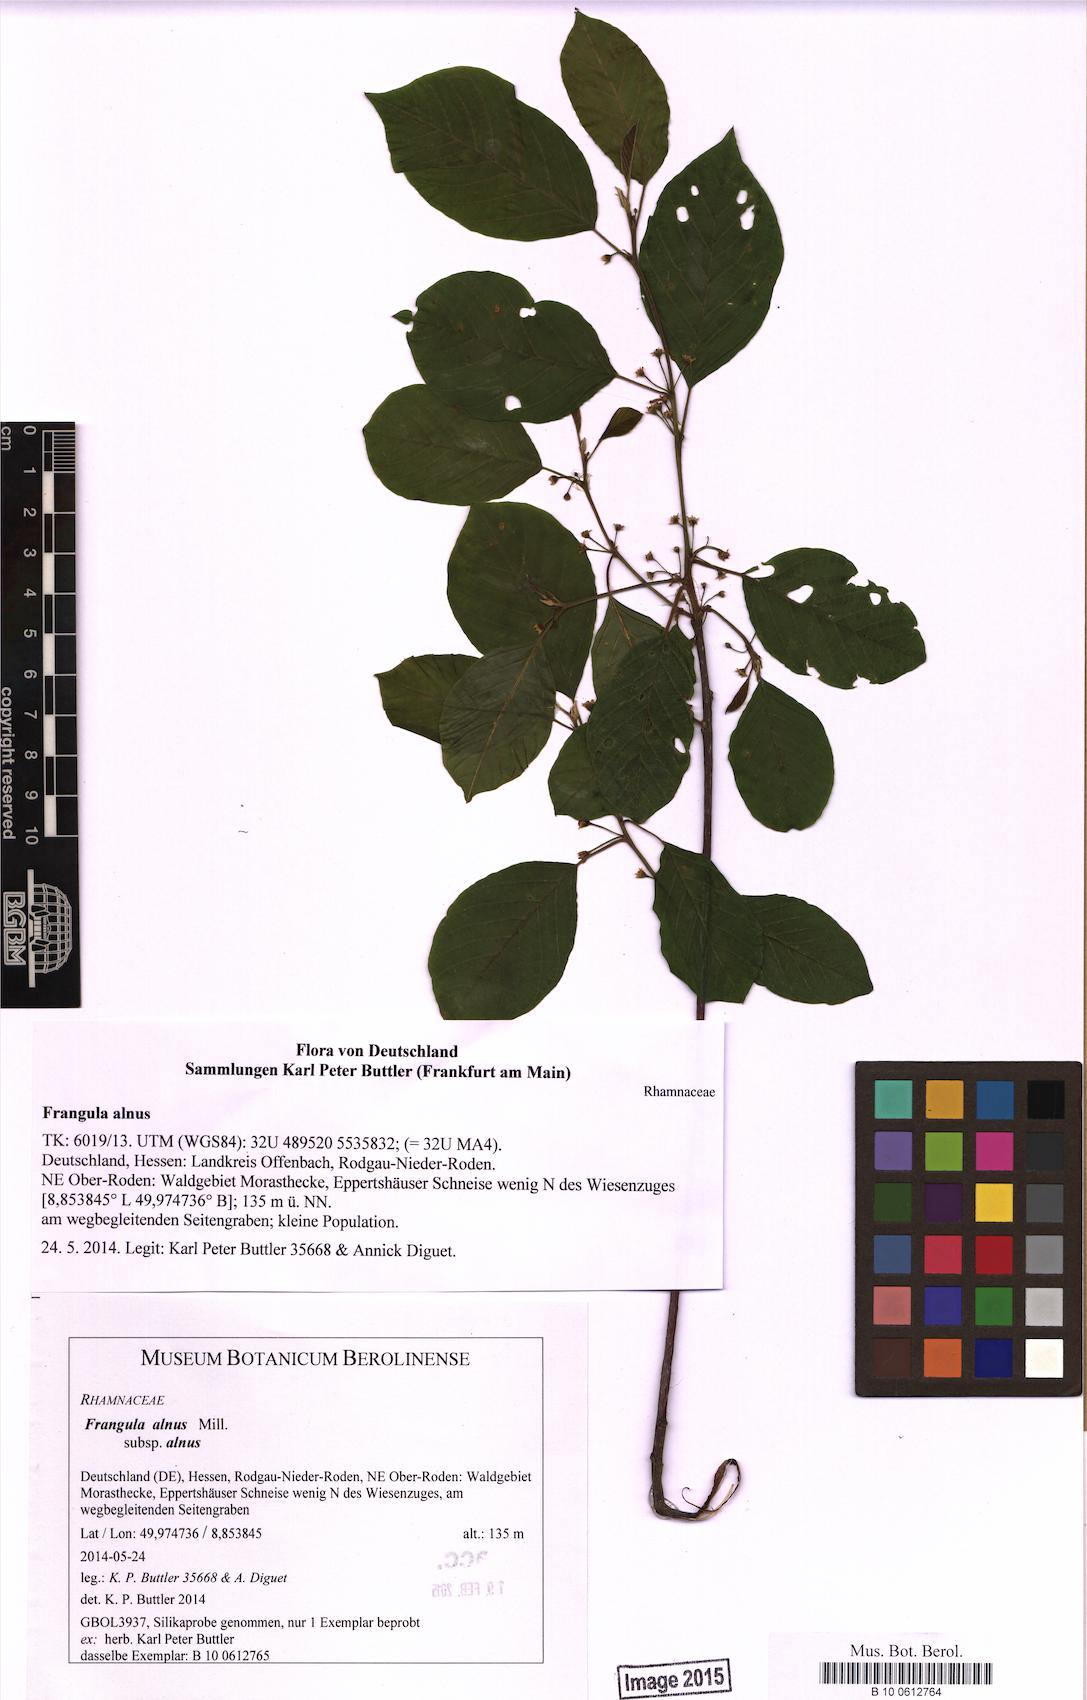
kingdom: Plantae
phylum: Tracheophyta
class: Magnoliopsida
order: Rosales
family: Rhamnaceae
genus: Frangula
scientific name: Frangula alnus
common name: Alder buckthorn
